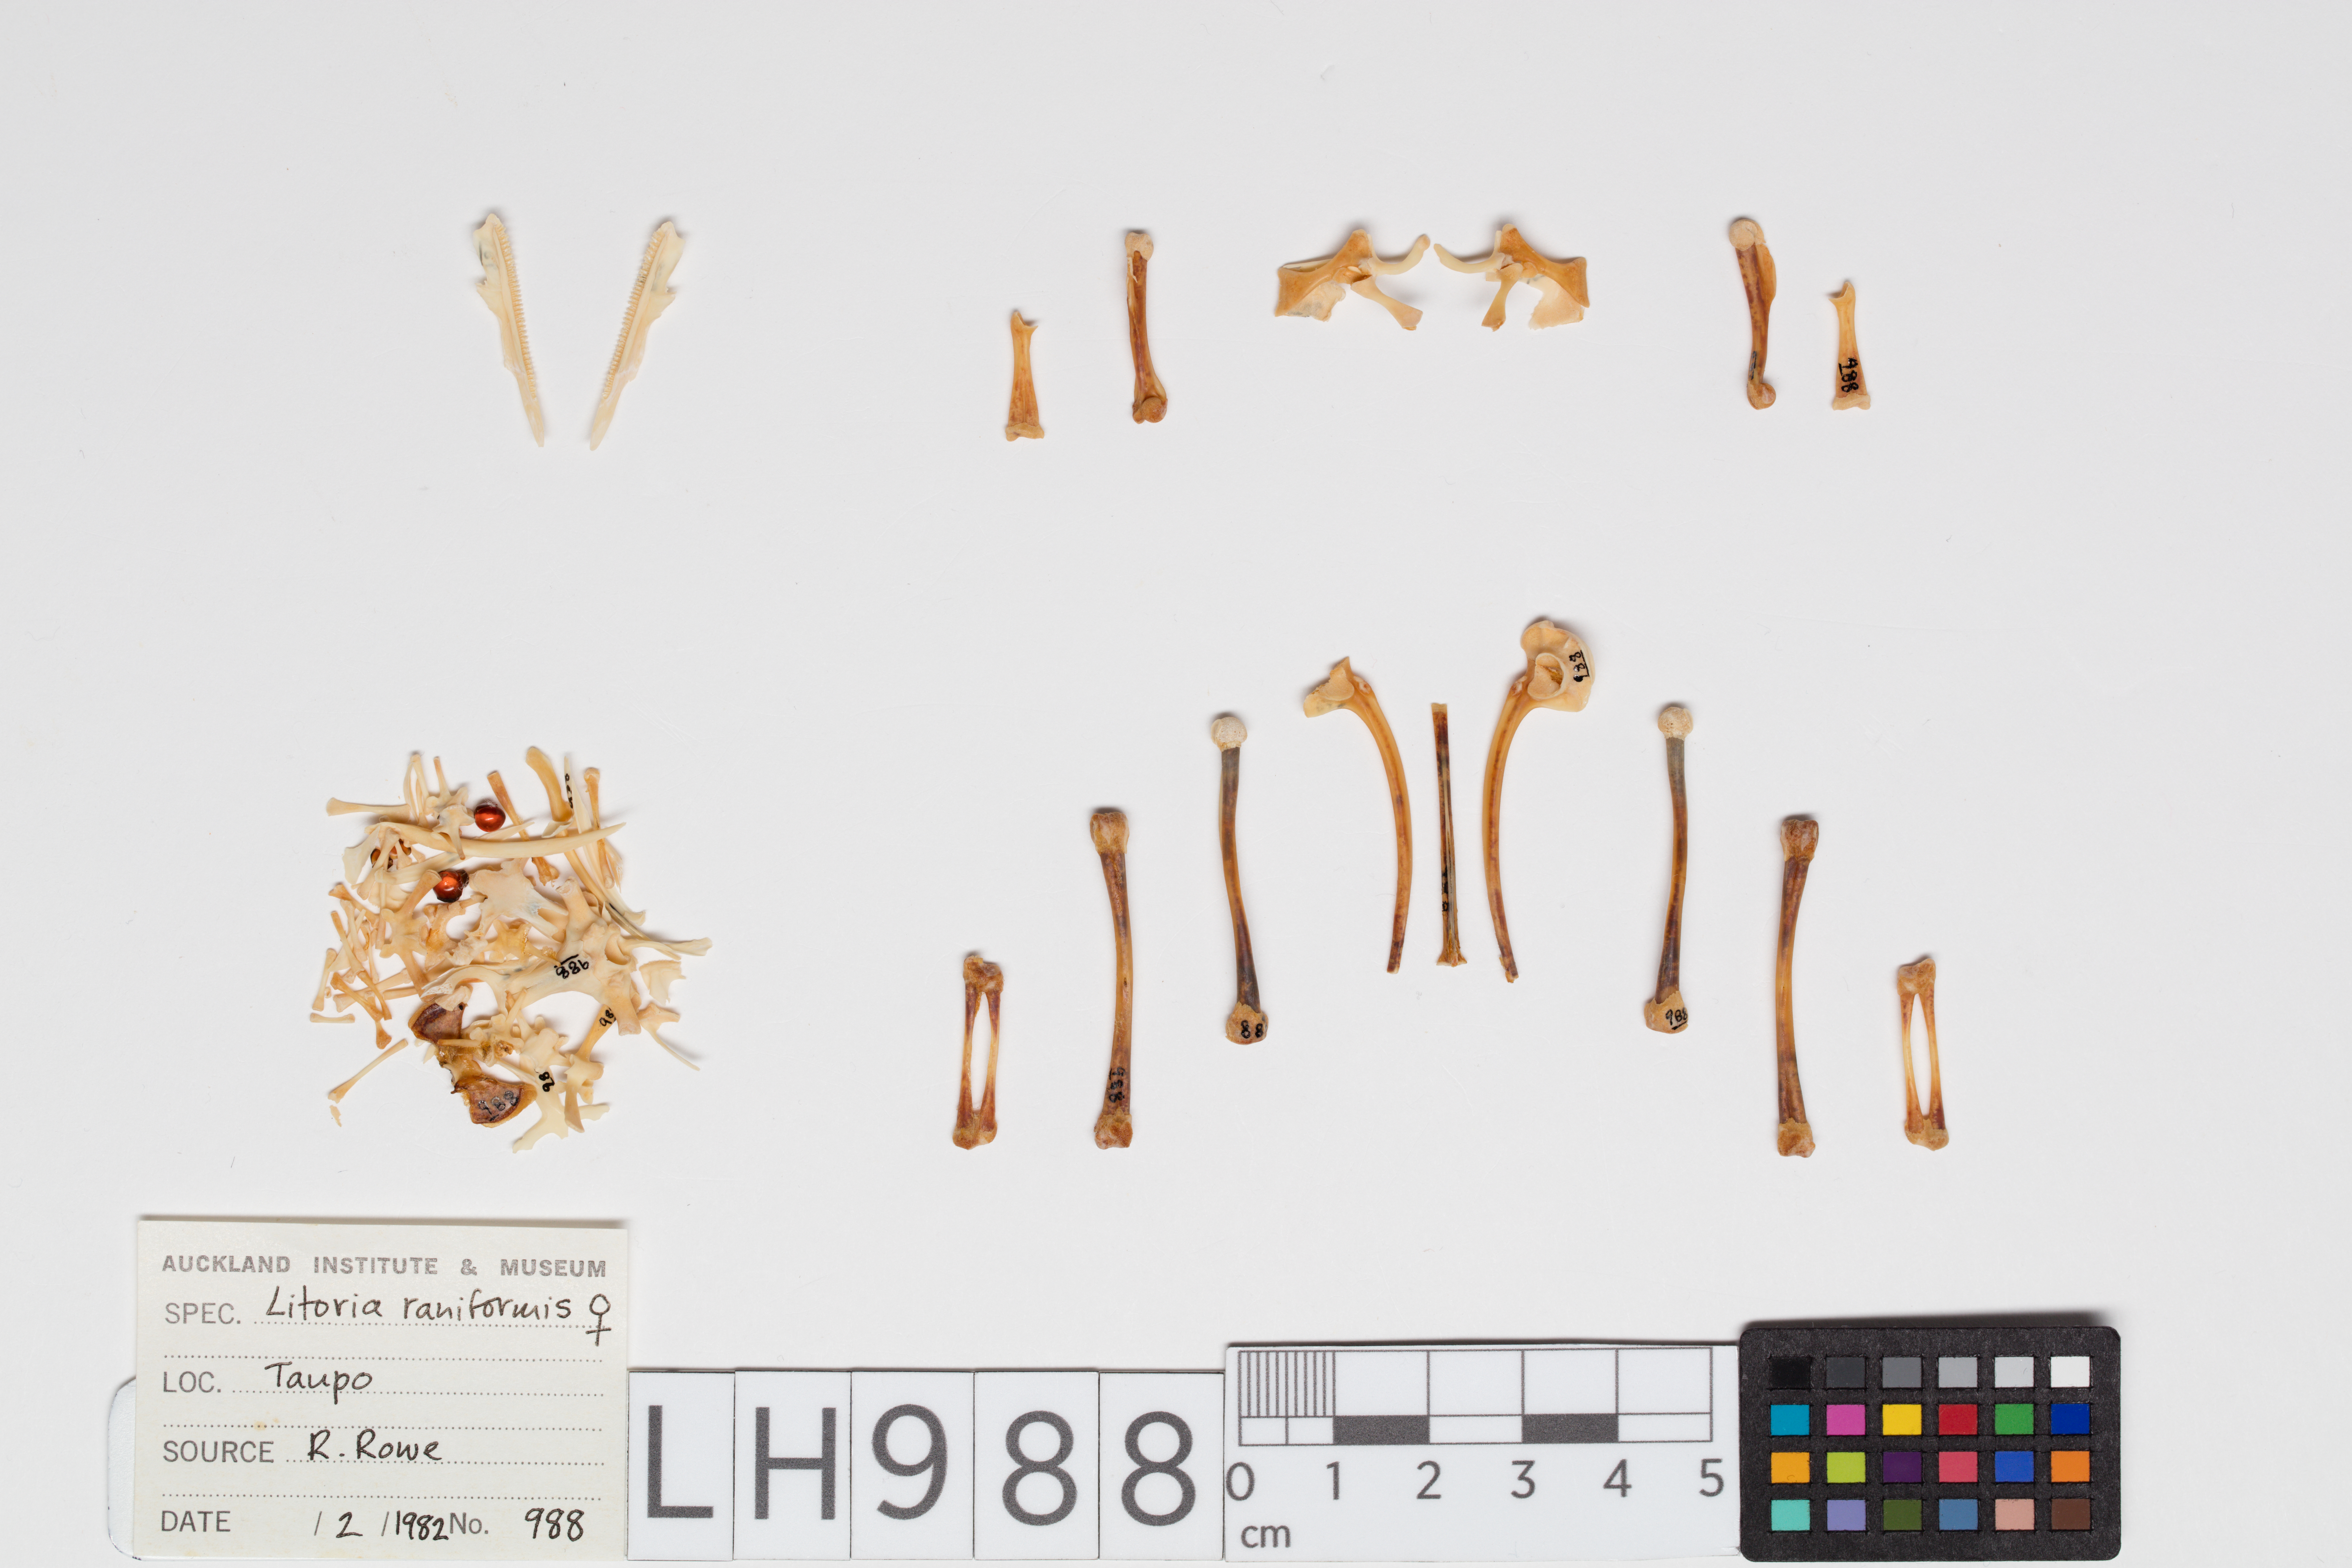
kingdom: Animalia
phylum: Chordata
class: Amphibia
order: Anura
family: Pelodryadidae
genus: Ranoidea
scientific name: Ranoidea raniformis
